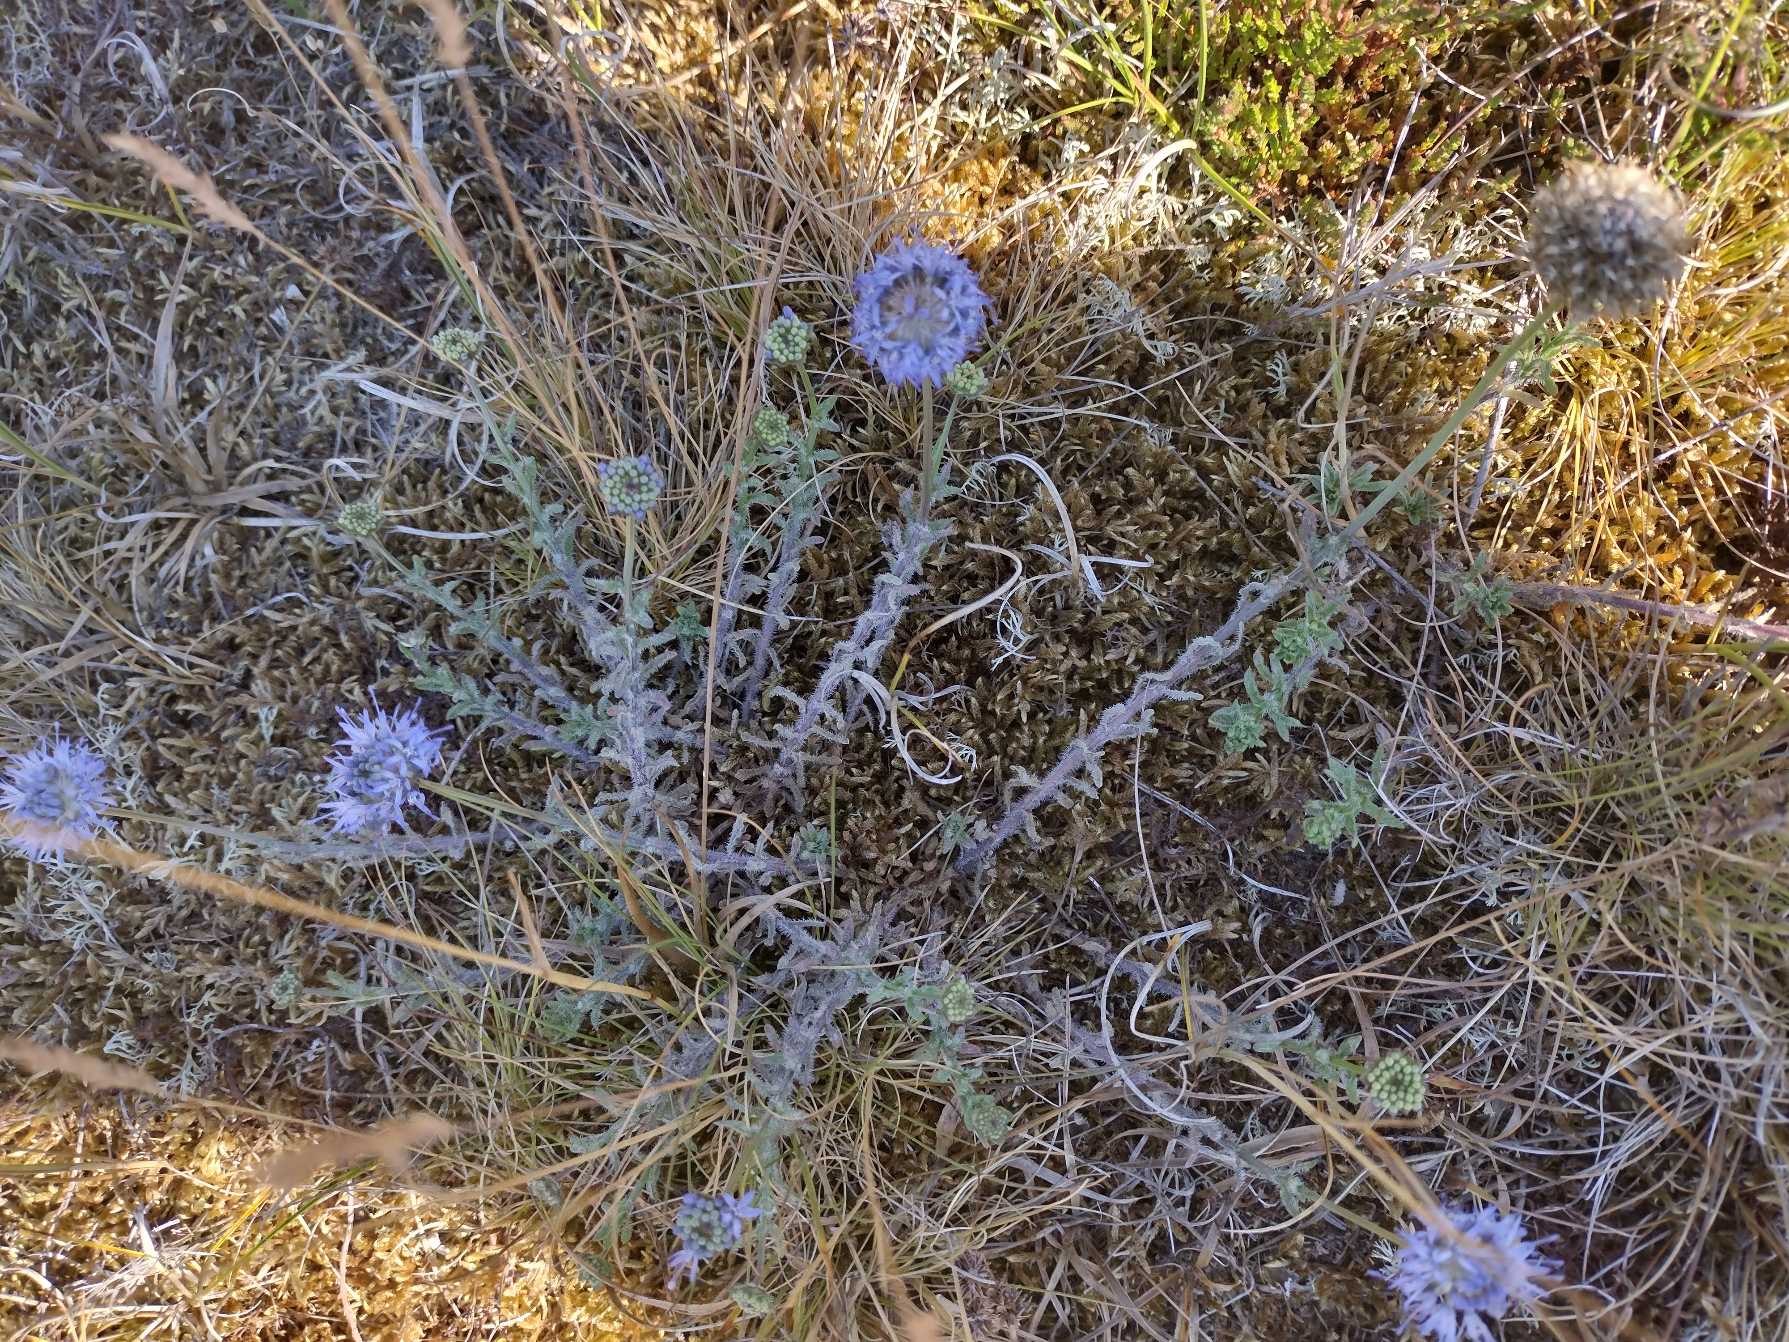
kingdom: Plantae
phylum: Tracheophyta
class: Magnoliopsida
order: Asterales
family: Campanulaceae
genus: Jasione
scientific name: Jasione montana
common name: Blåmunke
